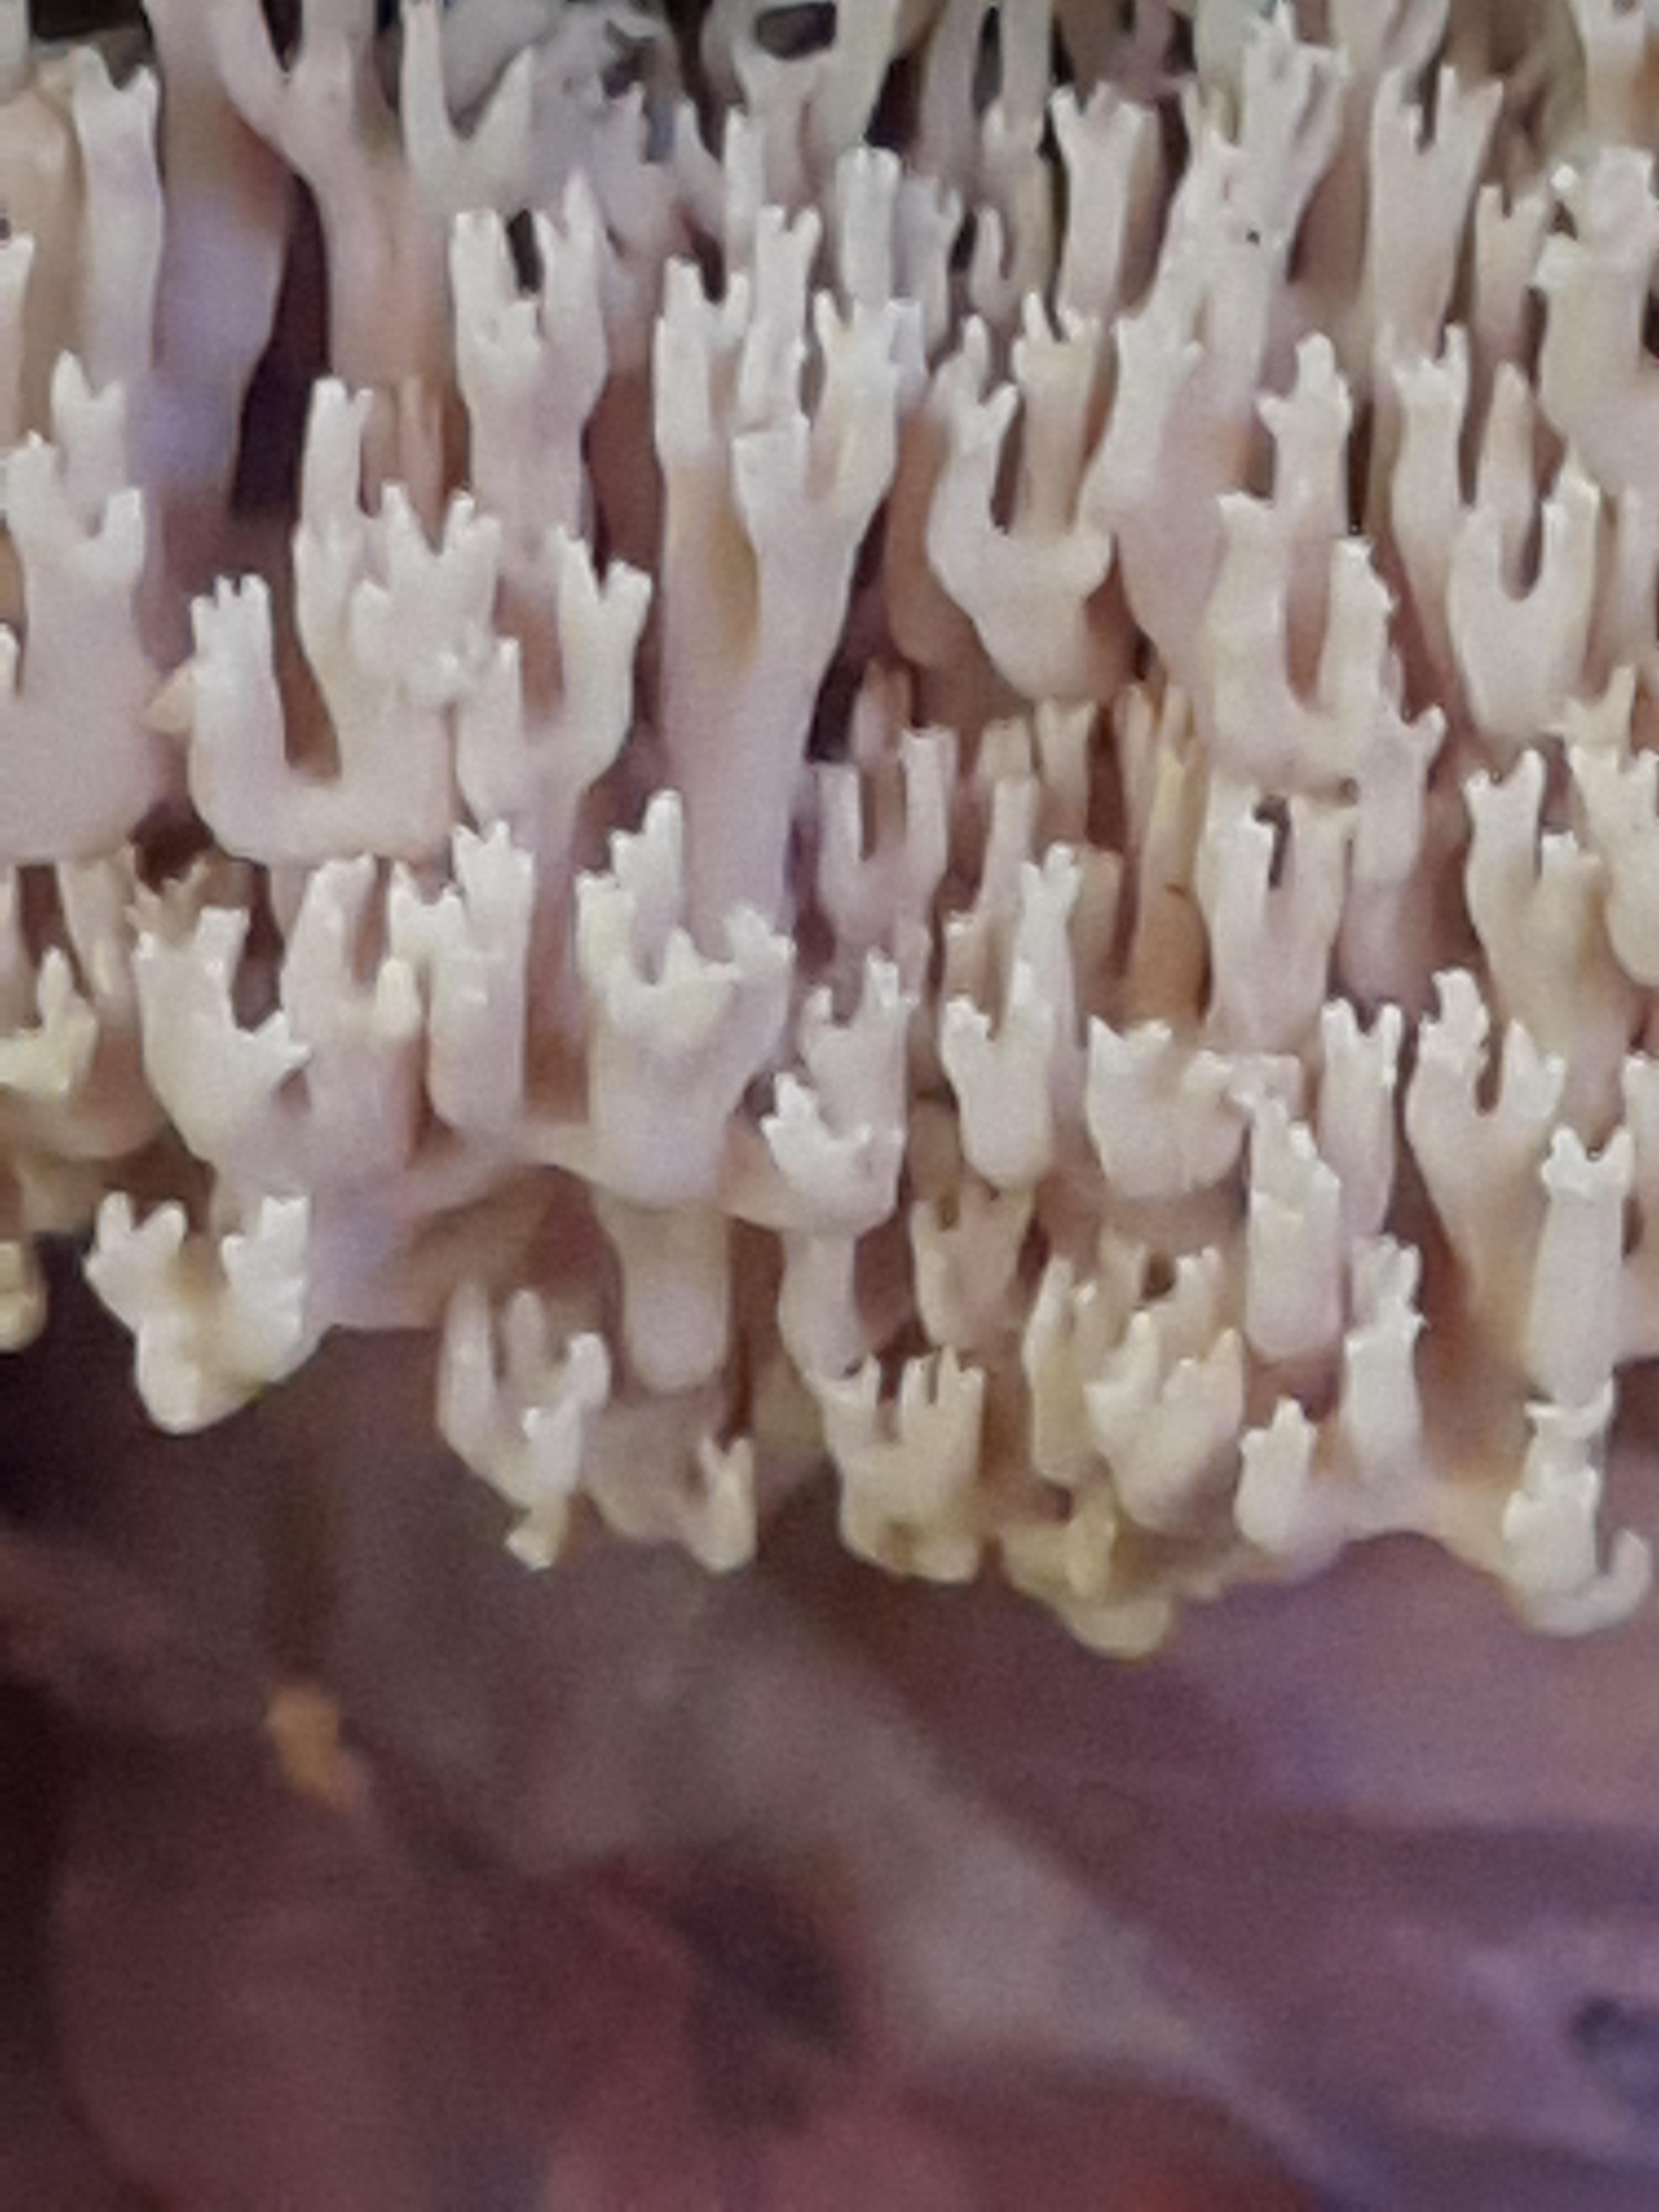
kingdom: Fungi
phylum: Basidiomycota
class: Agaricomycetes
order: Gomphales
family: Gomphaceae
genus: Ramaria
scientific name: Ramaria stricta
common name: rank koralsvamp
